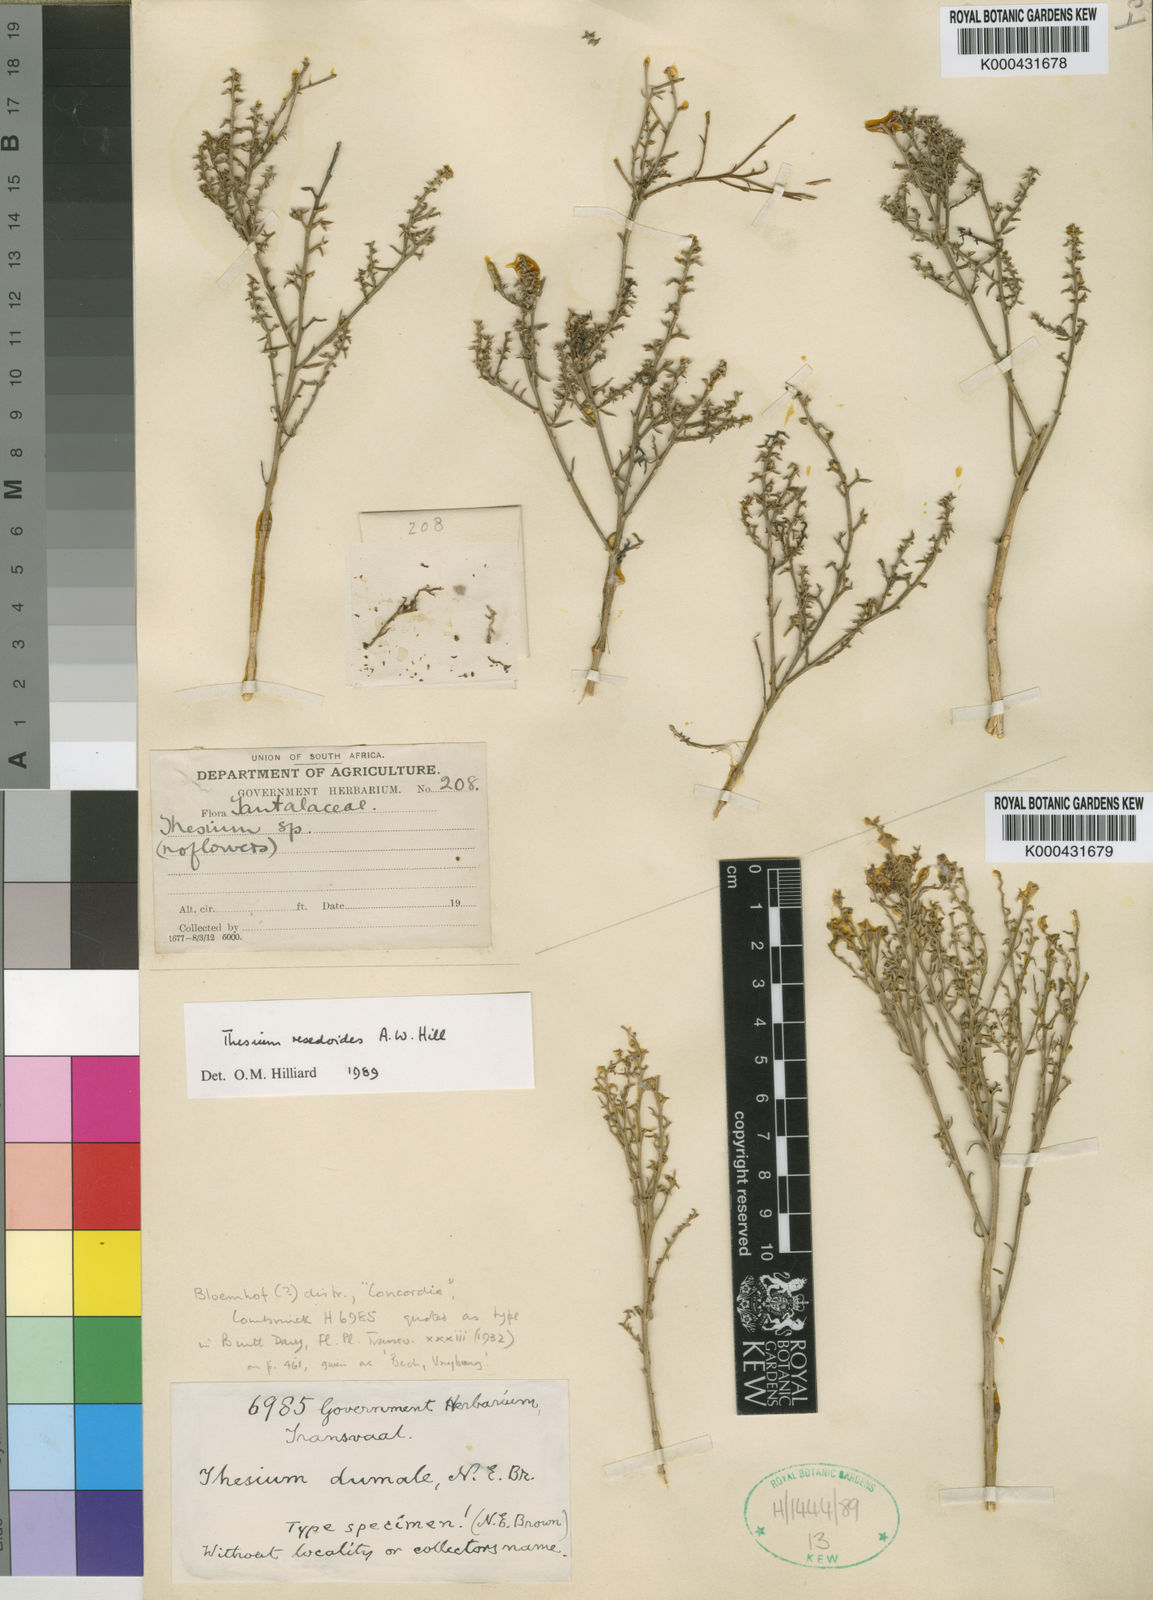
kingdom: Plantae
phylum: Tracheophyta
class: Magnoliopsida
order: Santalales
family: Thesiaceae
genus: Thesium
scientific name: Thesium resedoides
